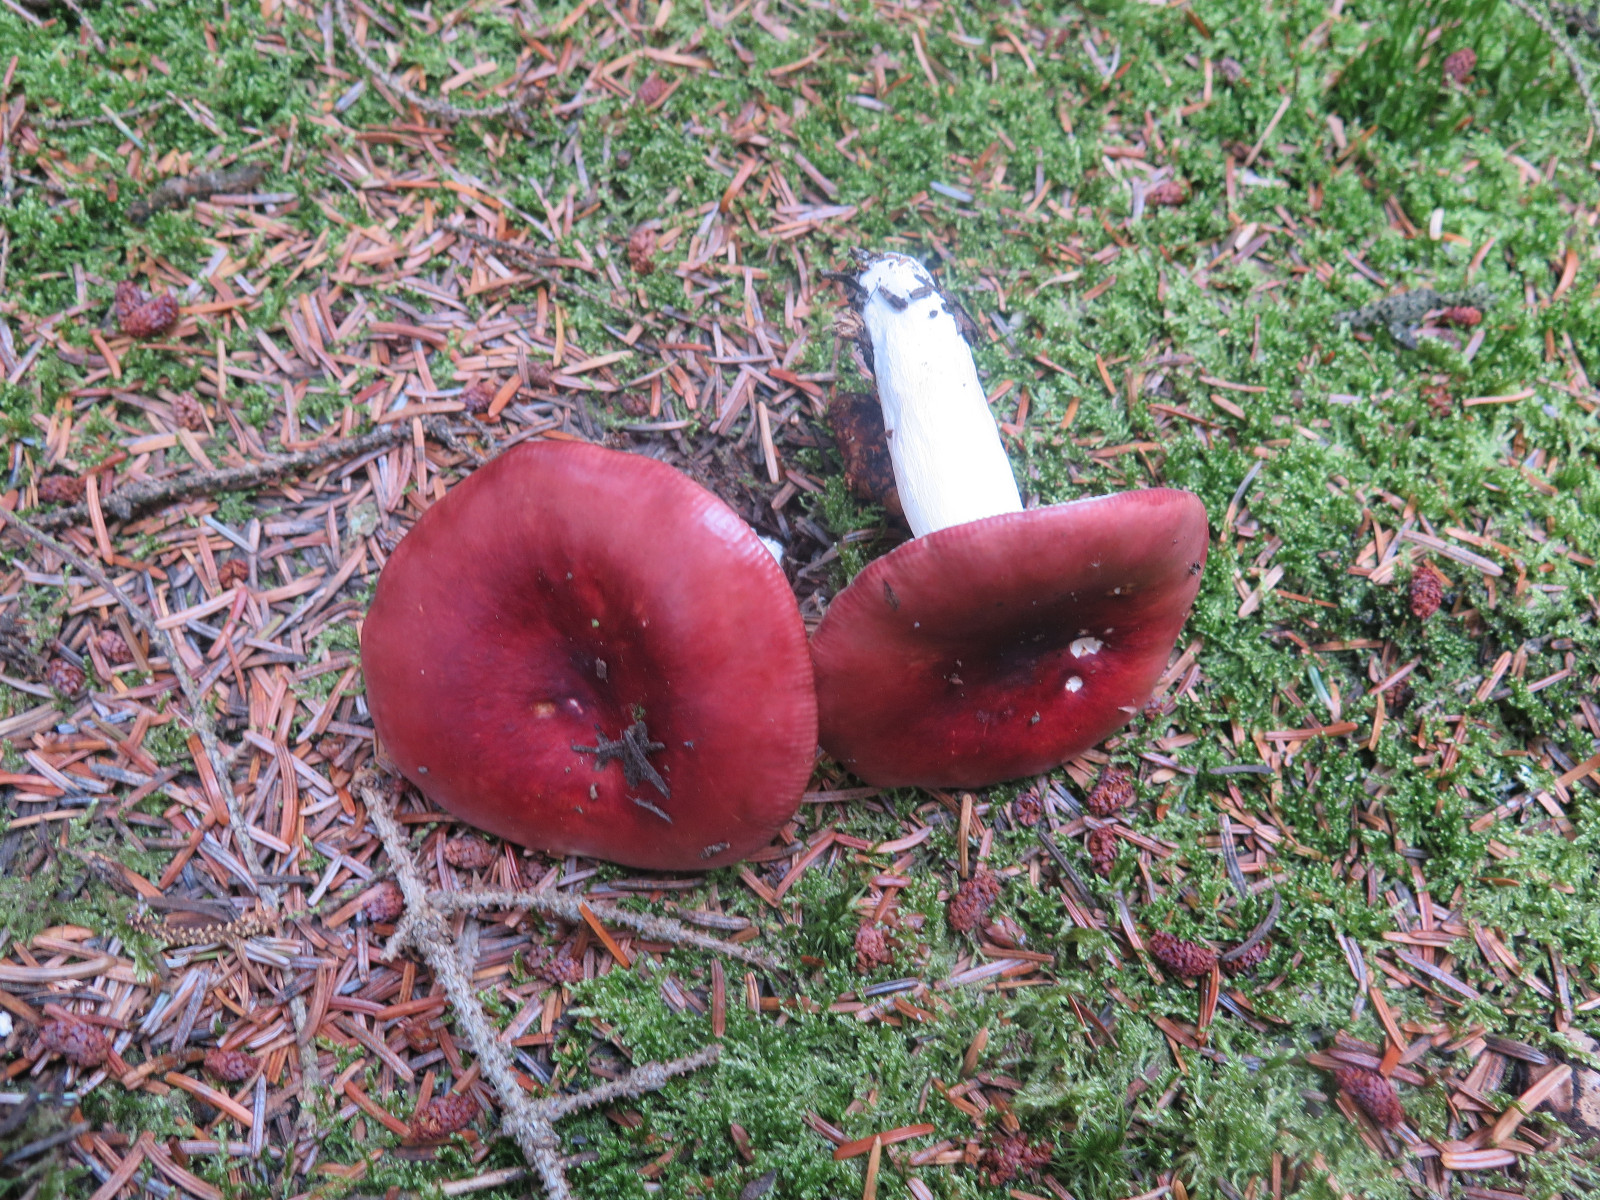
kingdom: Fungi
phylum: Basidiomycota
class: Agaricomycetes
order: Russulales
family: Russulaceae
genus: Russula
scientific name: Russula paludosa
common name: prægtig skørhat
